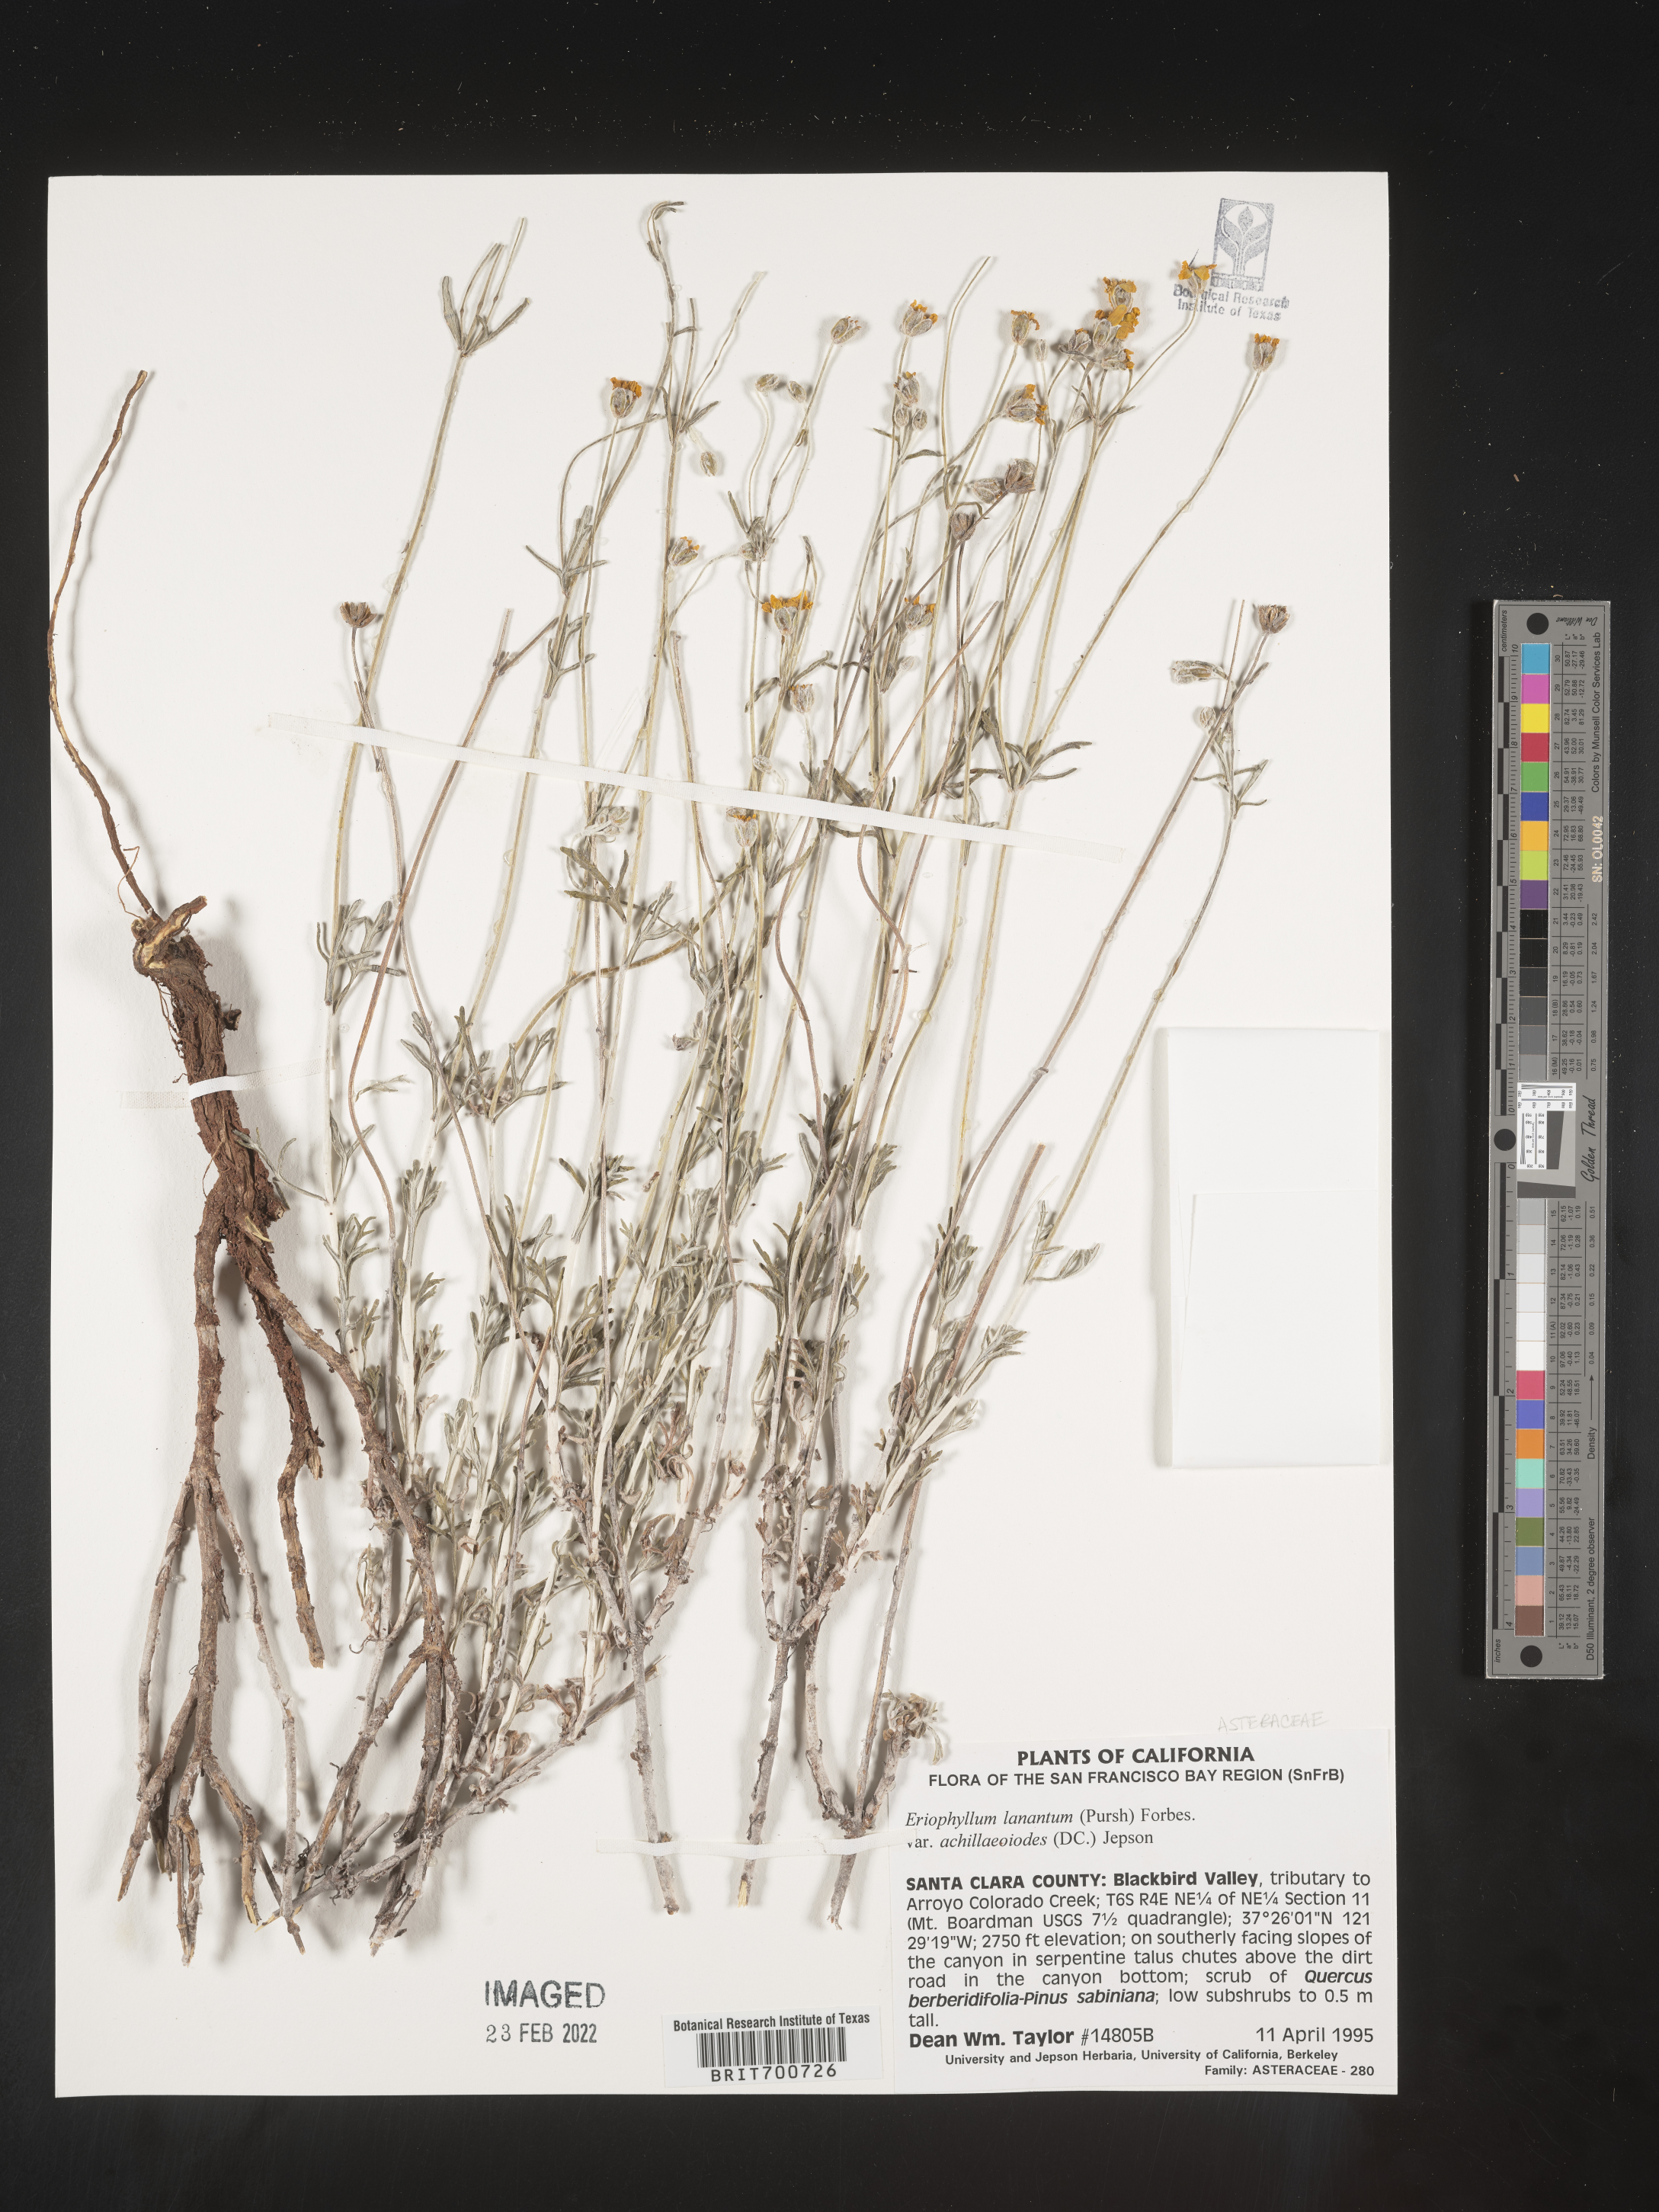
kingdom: Plantae
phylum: Tracheophyta
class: Magnoliopsida
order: Asterales
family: Asteraceae
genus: Eriophyllum
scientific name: Eriophyllum lanatum
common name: Common woolly-sunflower
